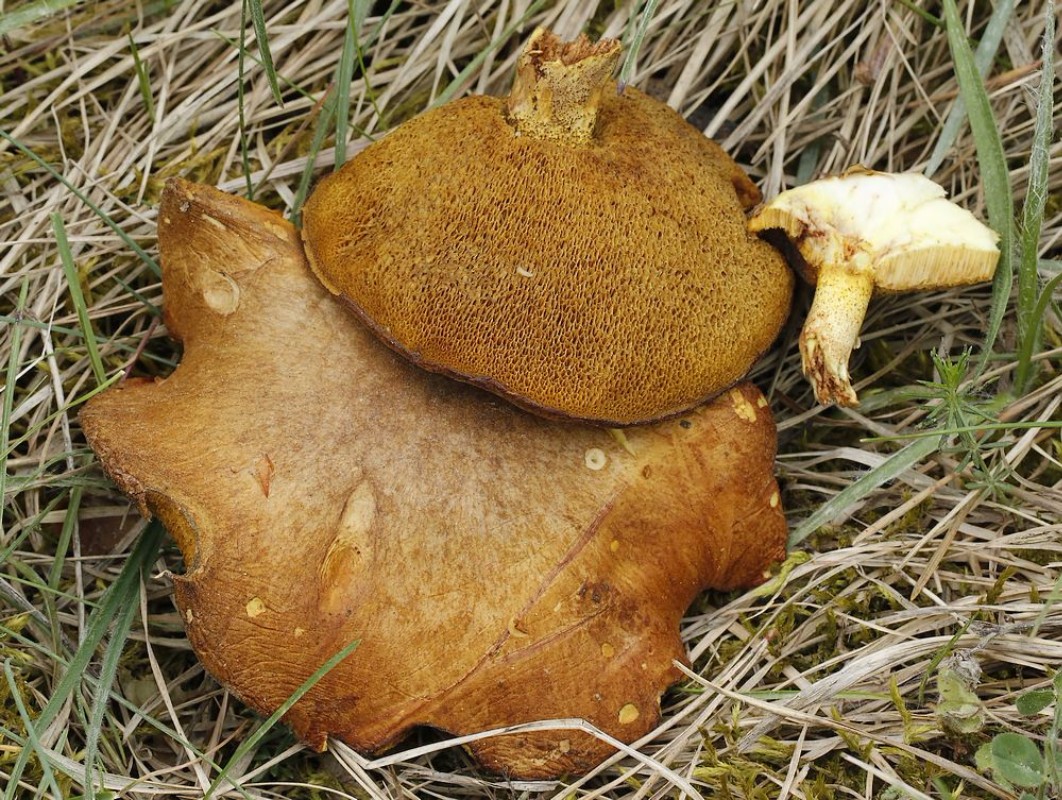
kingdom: Fungi
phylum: Basidiomycota
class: Agaricomycetes
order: Boletales
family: Suillaceae
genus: Suillus
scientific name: Suillus granulatus
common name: kornet slimrørhat
